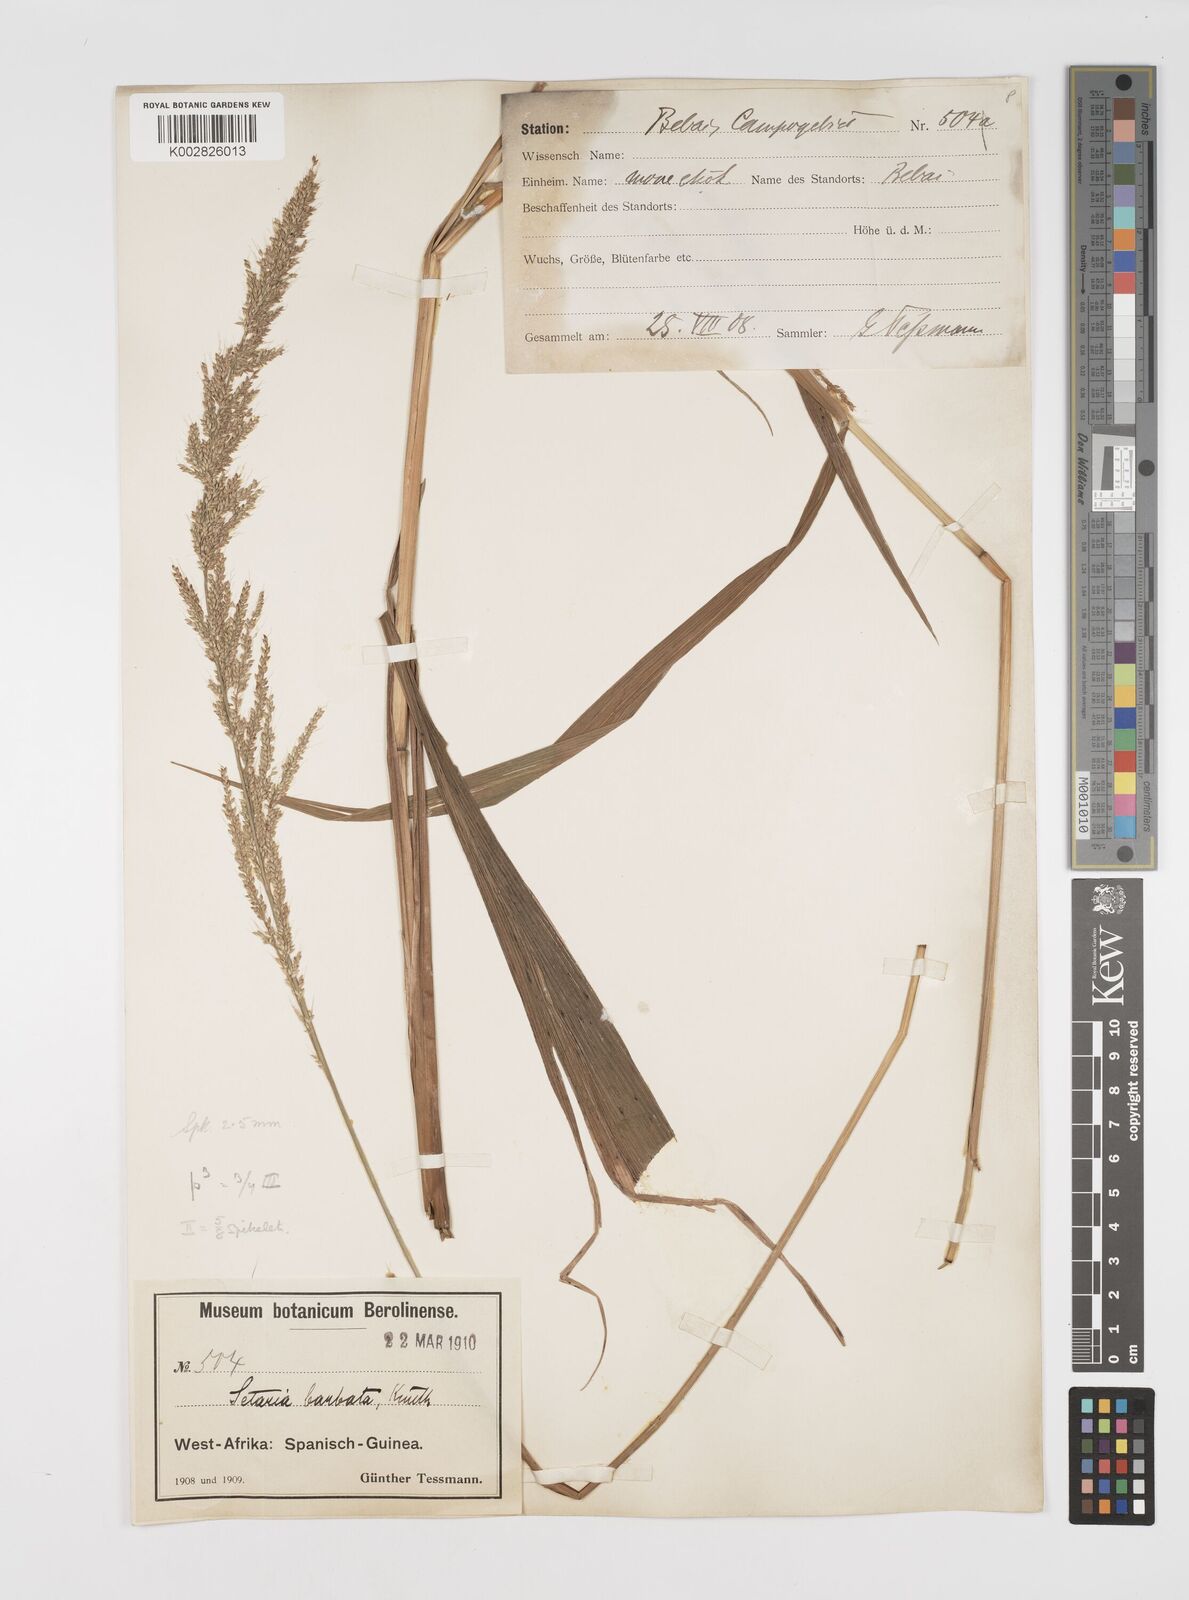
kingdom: Plantae
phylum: Tracheophyta
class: Liliopsida
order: Poales
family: Poaceae
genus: Setaria
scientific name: Setaria megaphylla
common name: Bigleaf bristlegrass
